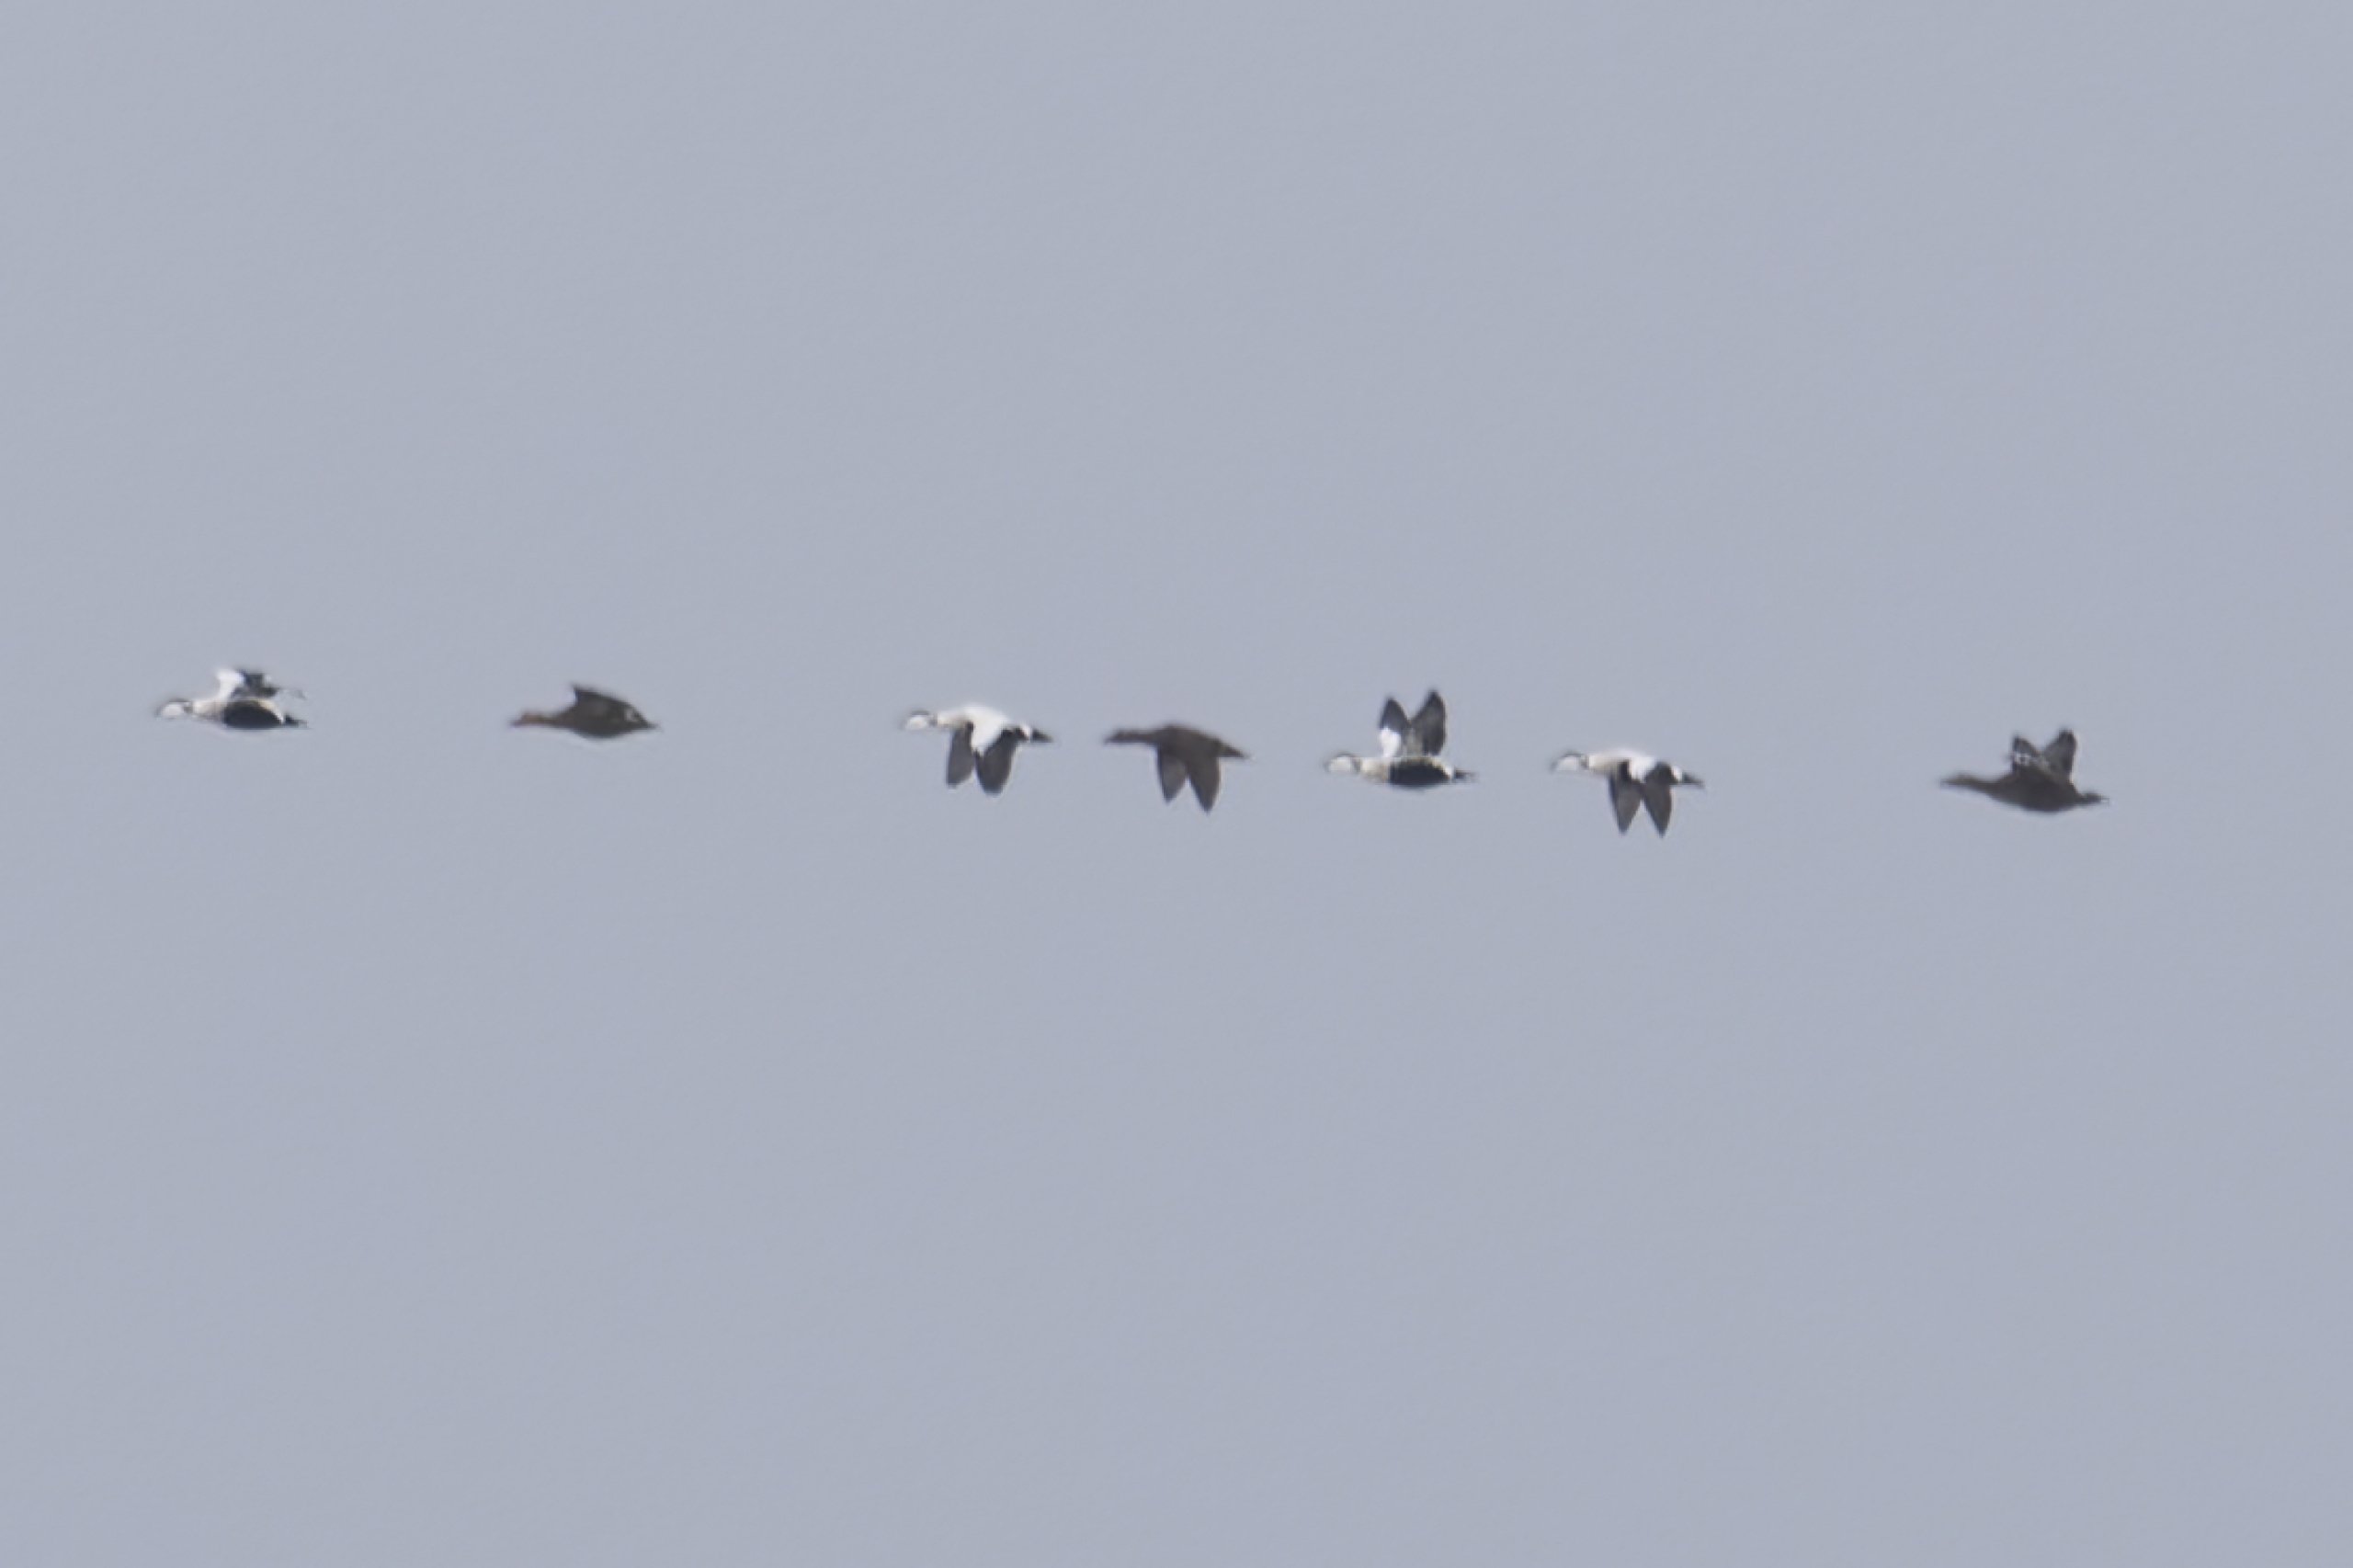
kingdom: Animalia
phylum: Chordata
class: Aves
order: Anseriformes
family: Anatidae
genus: Somateria
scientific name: Somateria mollissima
